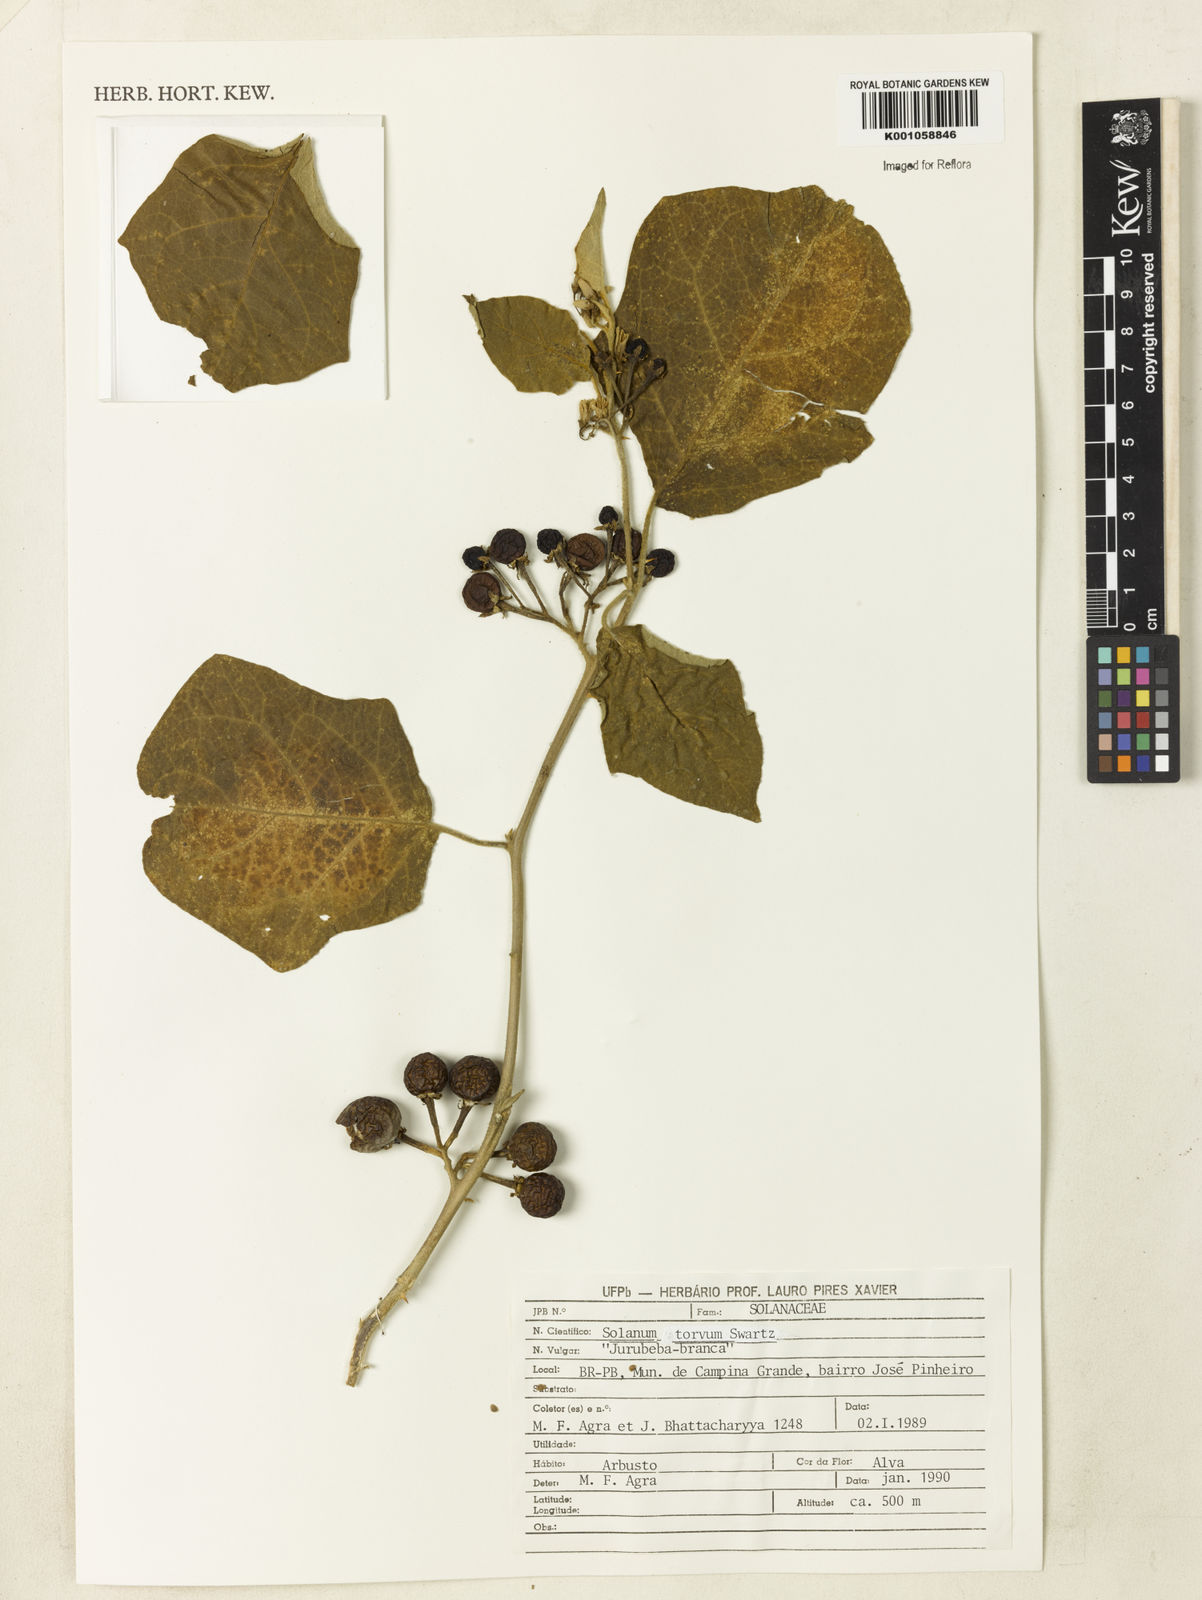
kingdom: Plantae
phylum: Tracheophyta
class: Magnoliopsida
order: Solanales
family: Solanaceae
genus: Solanum
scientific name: Solanum torvum
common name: Turkey berry
